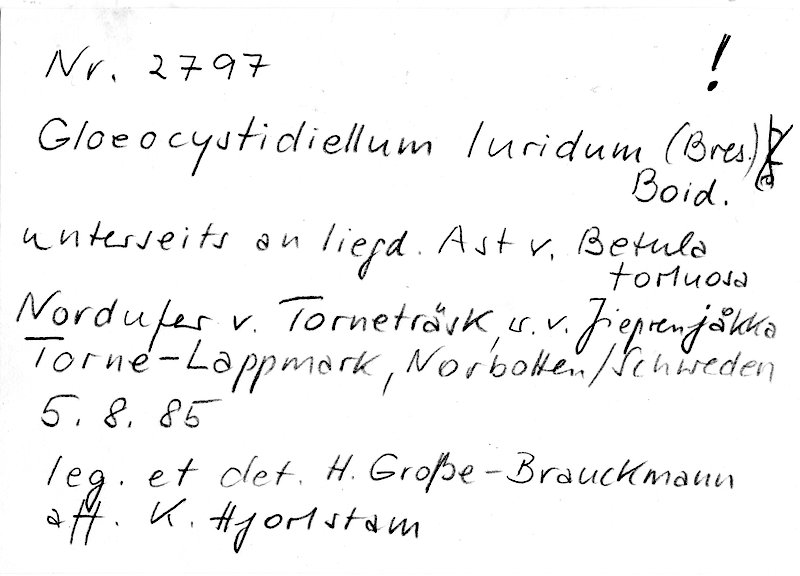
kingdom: Fungi
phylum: Basidiomycota
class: Agaricomycetes
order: Russulales
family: Stereaceae
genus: Gloeocystidiellum
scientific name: Gloeocystidiellum luridum
